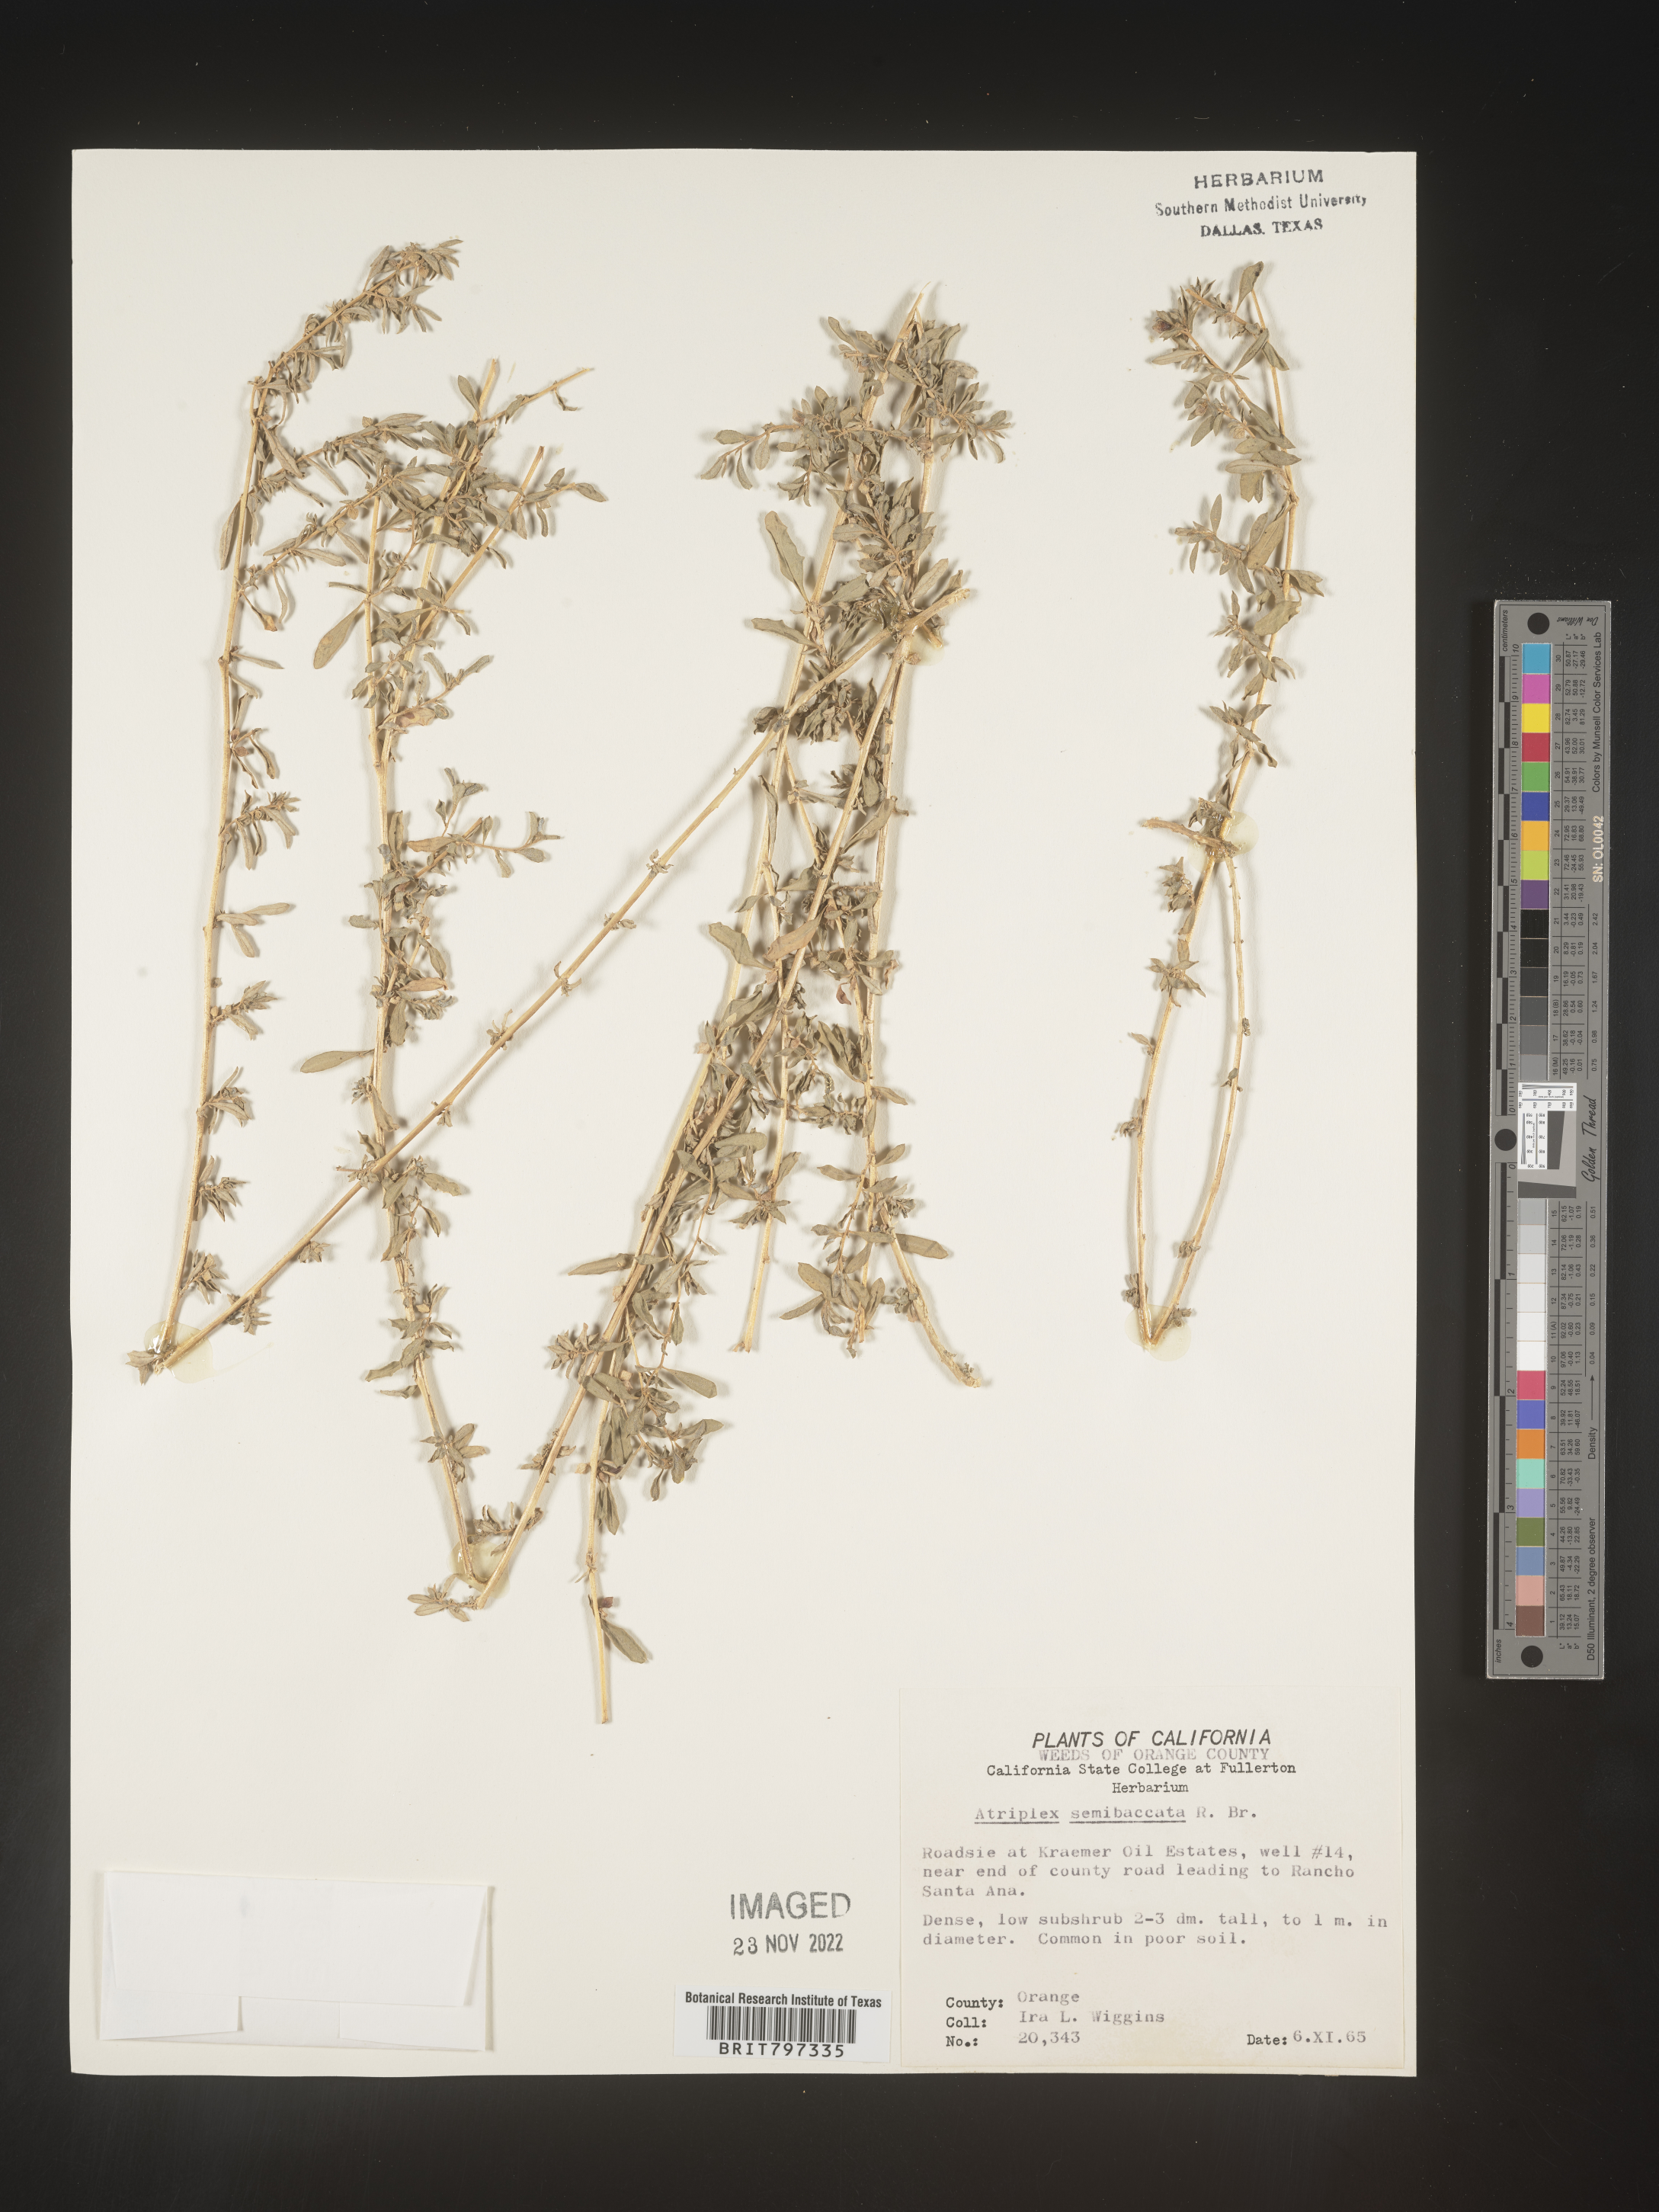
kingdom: Plantae
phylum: Tracheophyta
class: Magnoliopsida
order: Caryophyllales
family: Amaranthaceae
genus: Atriplex
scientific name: Atriplex
